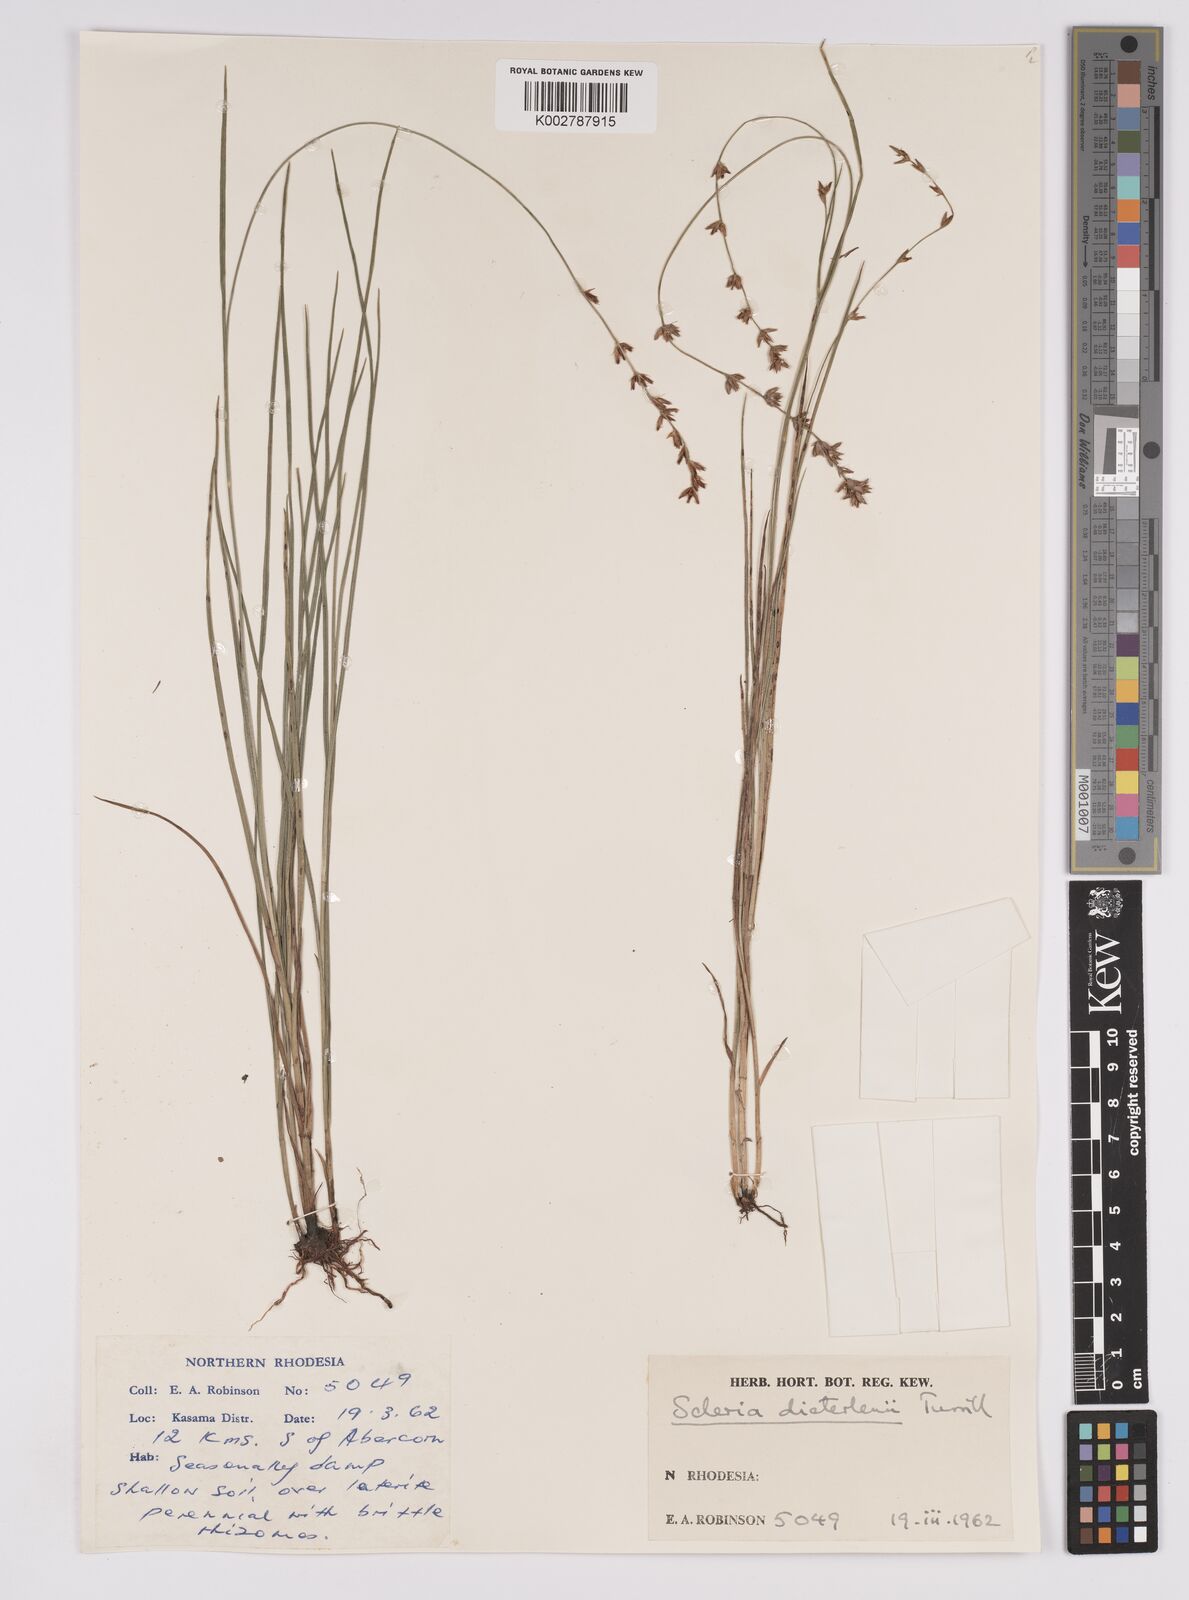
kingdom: Plantae
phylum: Tracheophyta
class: Liliopsida
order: Poales
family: Cyperaceae
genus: Scleria
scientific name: Scleria flexuosa
